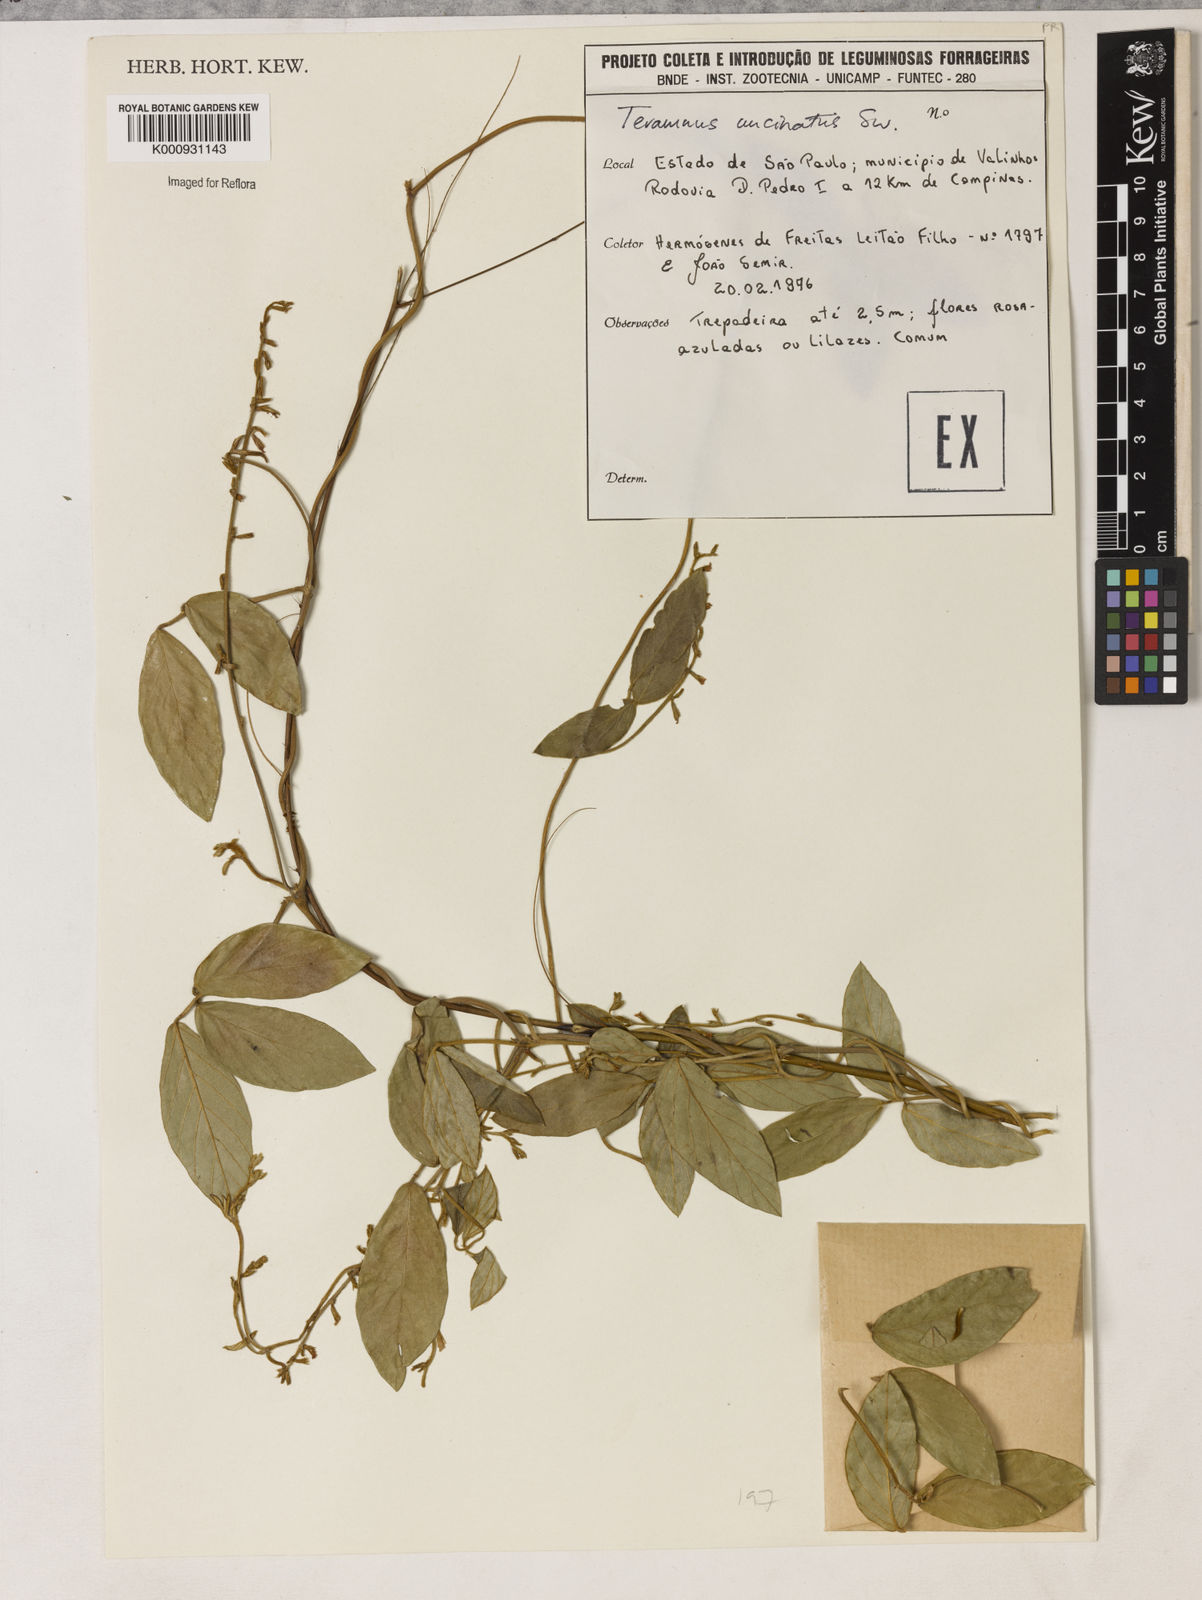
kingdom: Plantae
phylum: Tracheophyta
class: Magnoliopsida
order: Fabales
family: Fabaceae
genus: Teramnus
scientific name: Teramnus uncinatus
